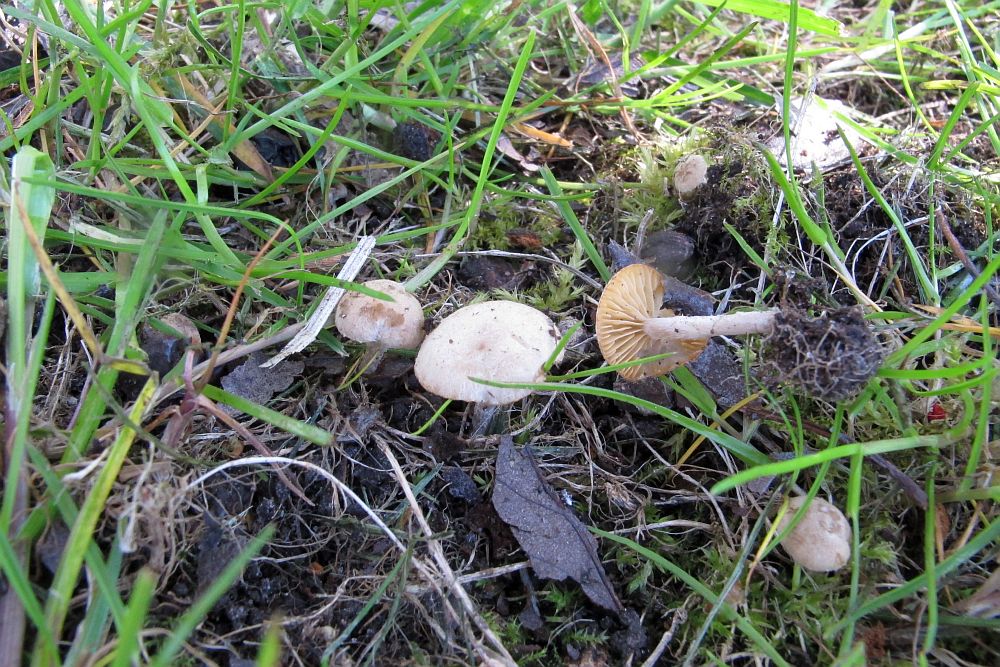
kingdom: Fungi
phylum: Basidiomycota
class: Agaricomycetes
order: Agaricales
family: Tubariaceae
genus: Tubaria
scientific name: Tubaria dispersa
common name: tjørne-fnughat
